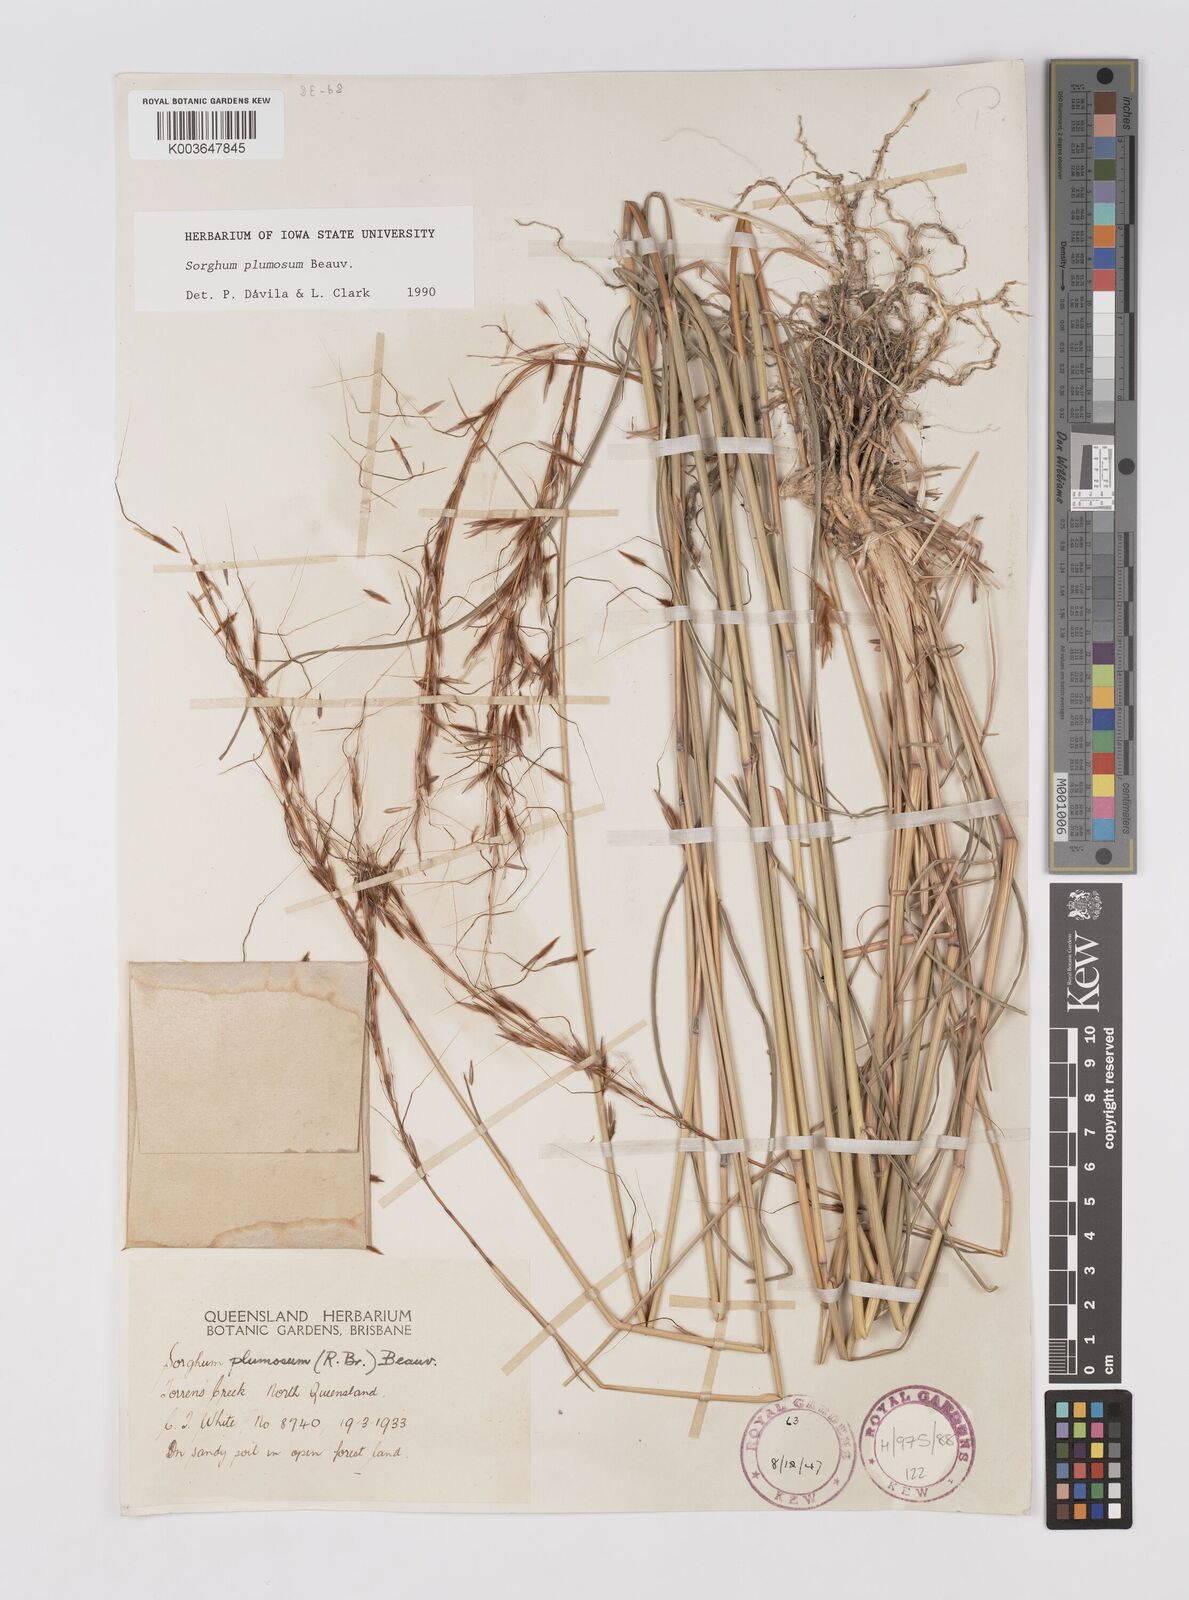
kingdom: Plantae
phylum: Tracheophyta
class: Liliopsida
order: Poales
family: Poaceae
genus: Sarga
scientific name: Sarga plumosa
